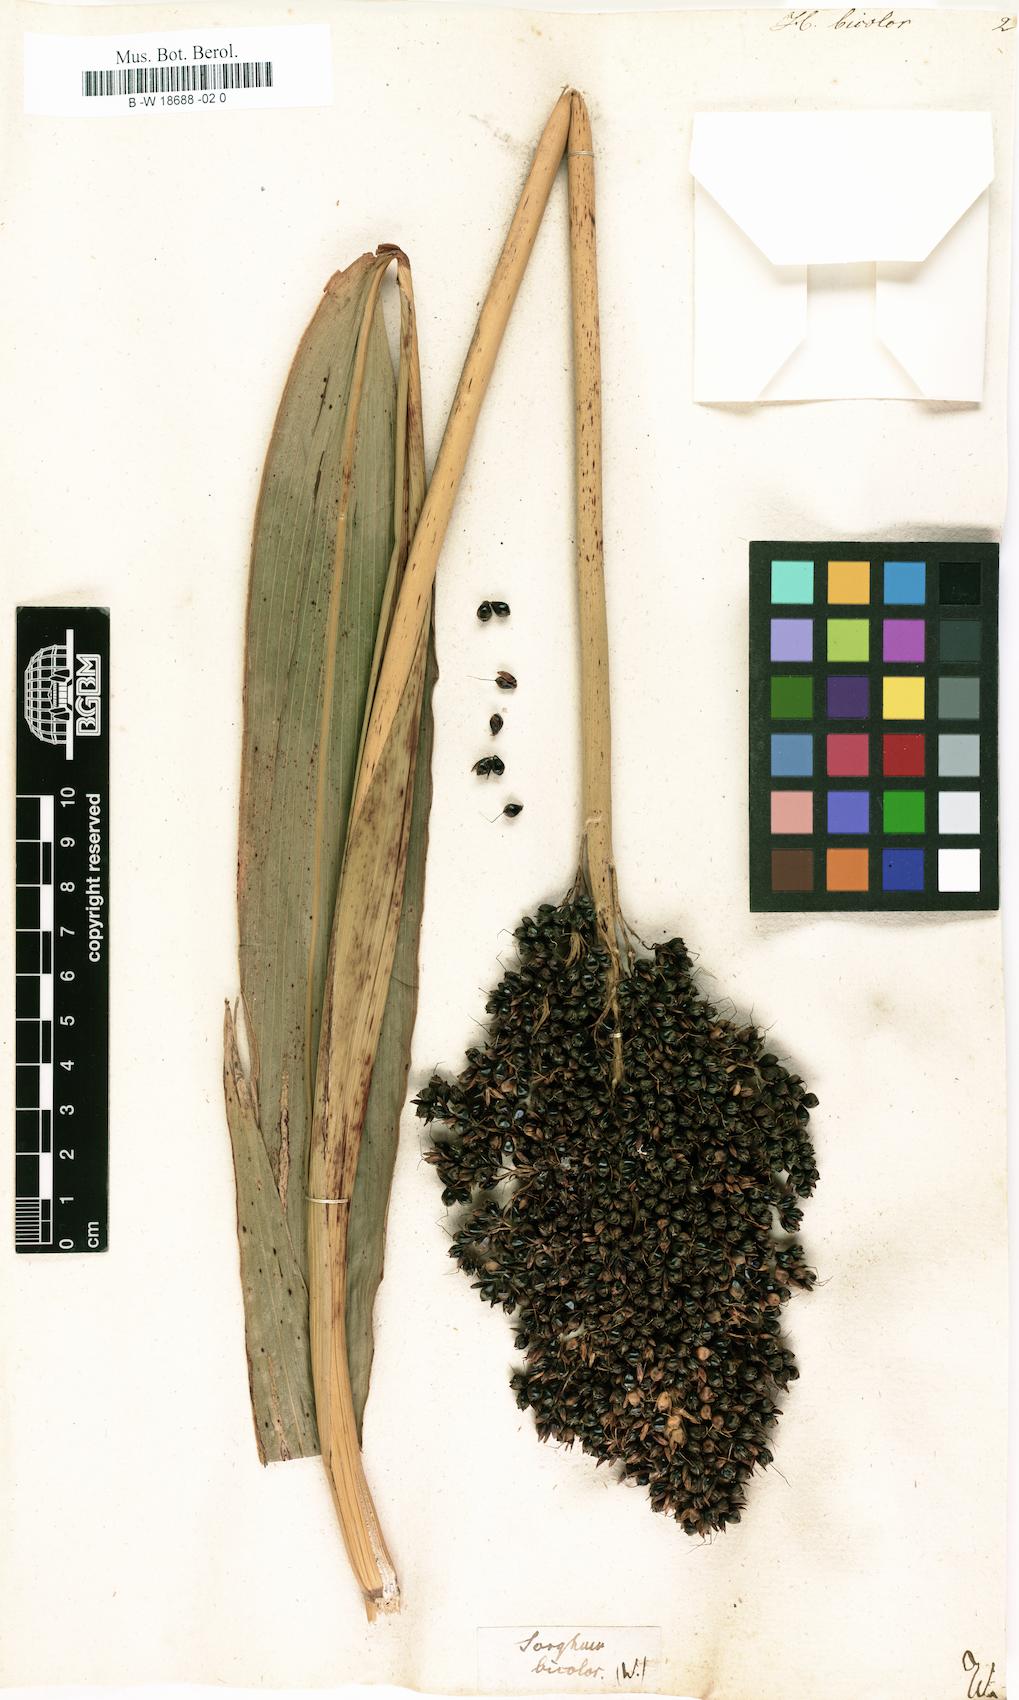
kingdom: Plantae
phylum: Tracheophyta
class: Liliopsida
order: Poales
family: Poaceae
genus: Sorghum
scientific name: Sorghum bicolor
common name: Sorghum
